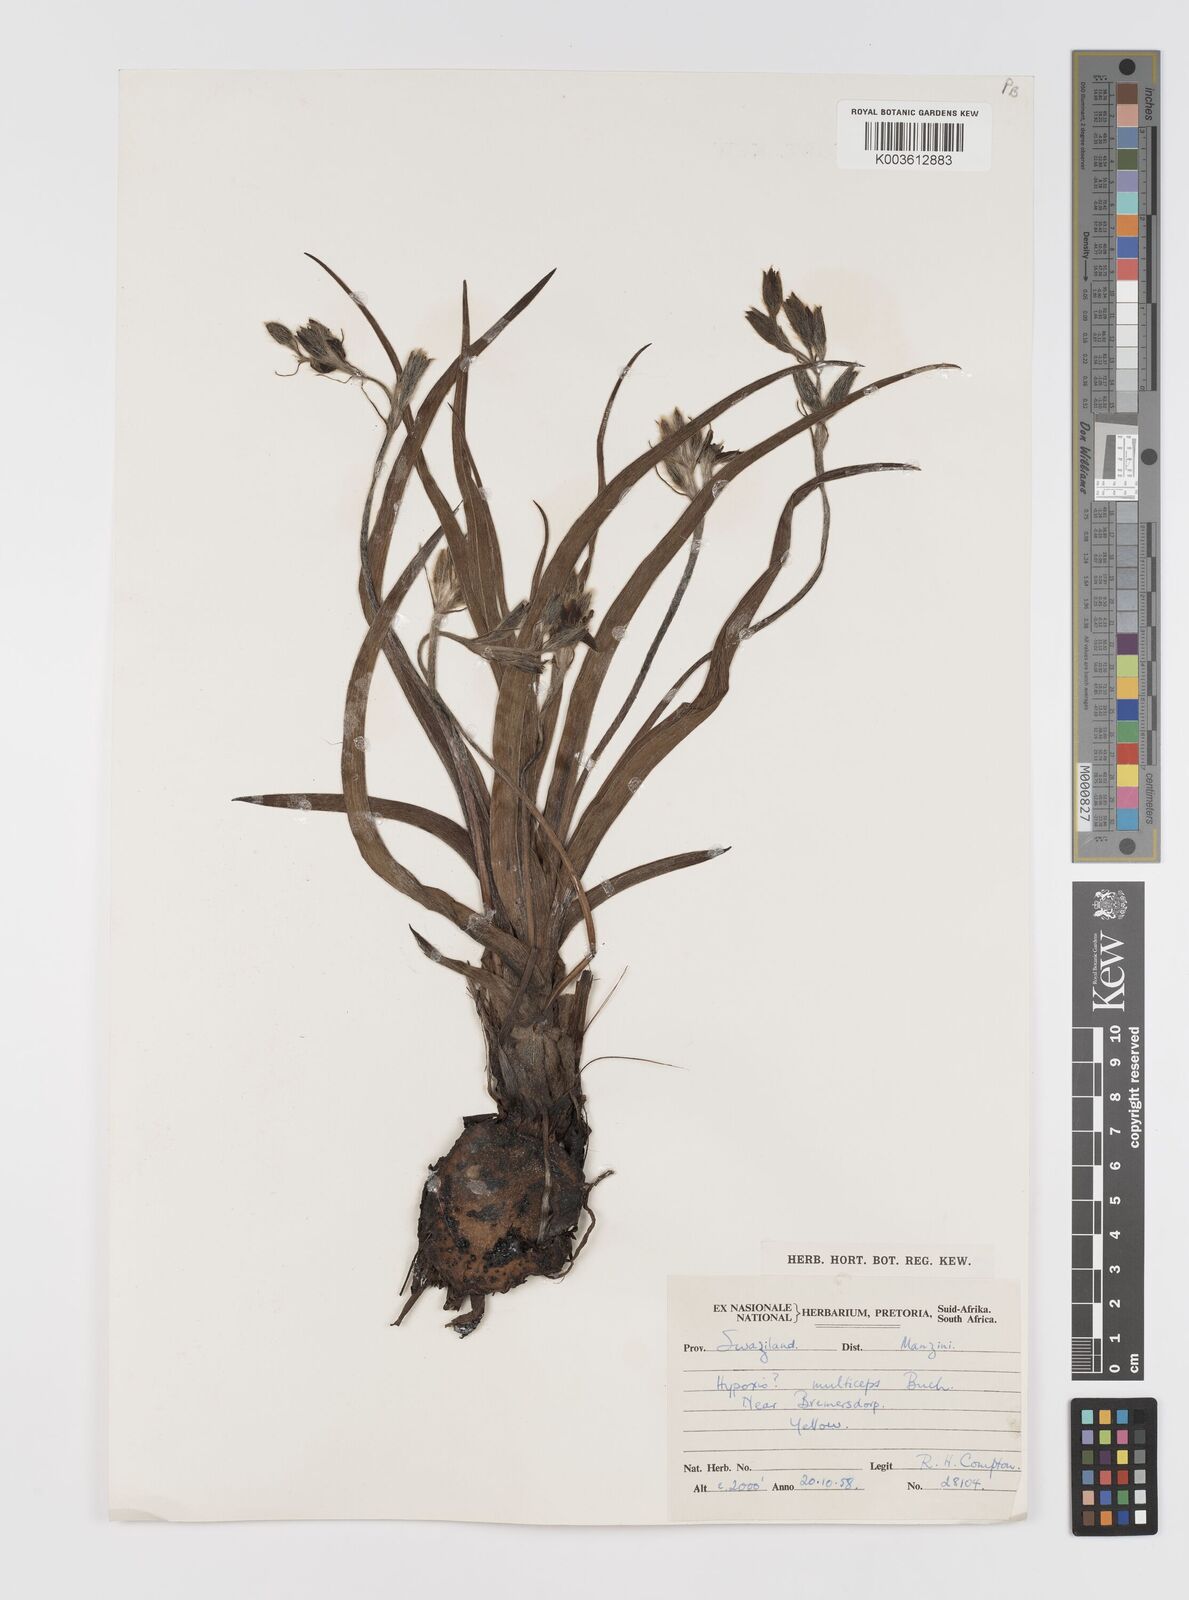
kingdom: Plantae
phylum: Tracheophyta
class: Liliopsida
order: Asparagales
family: Hypoxidaceae
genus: Hypoxis
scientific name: Hypoxis hemerocallidea
